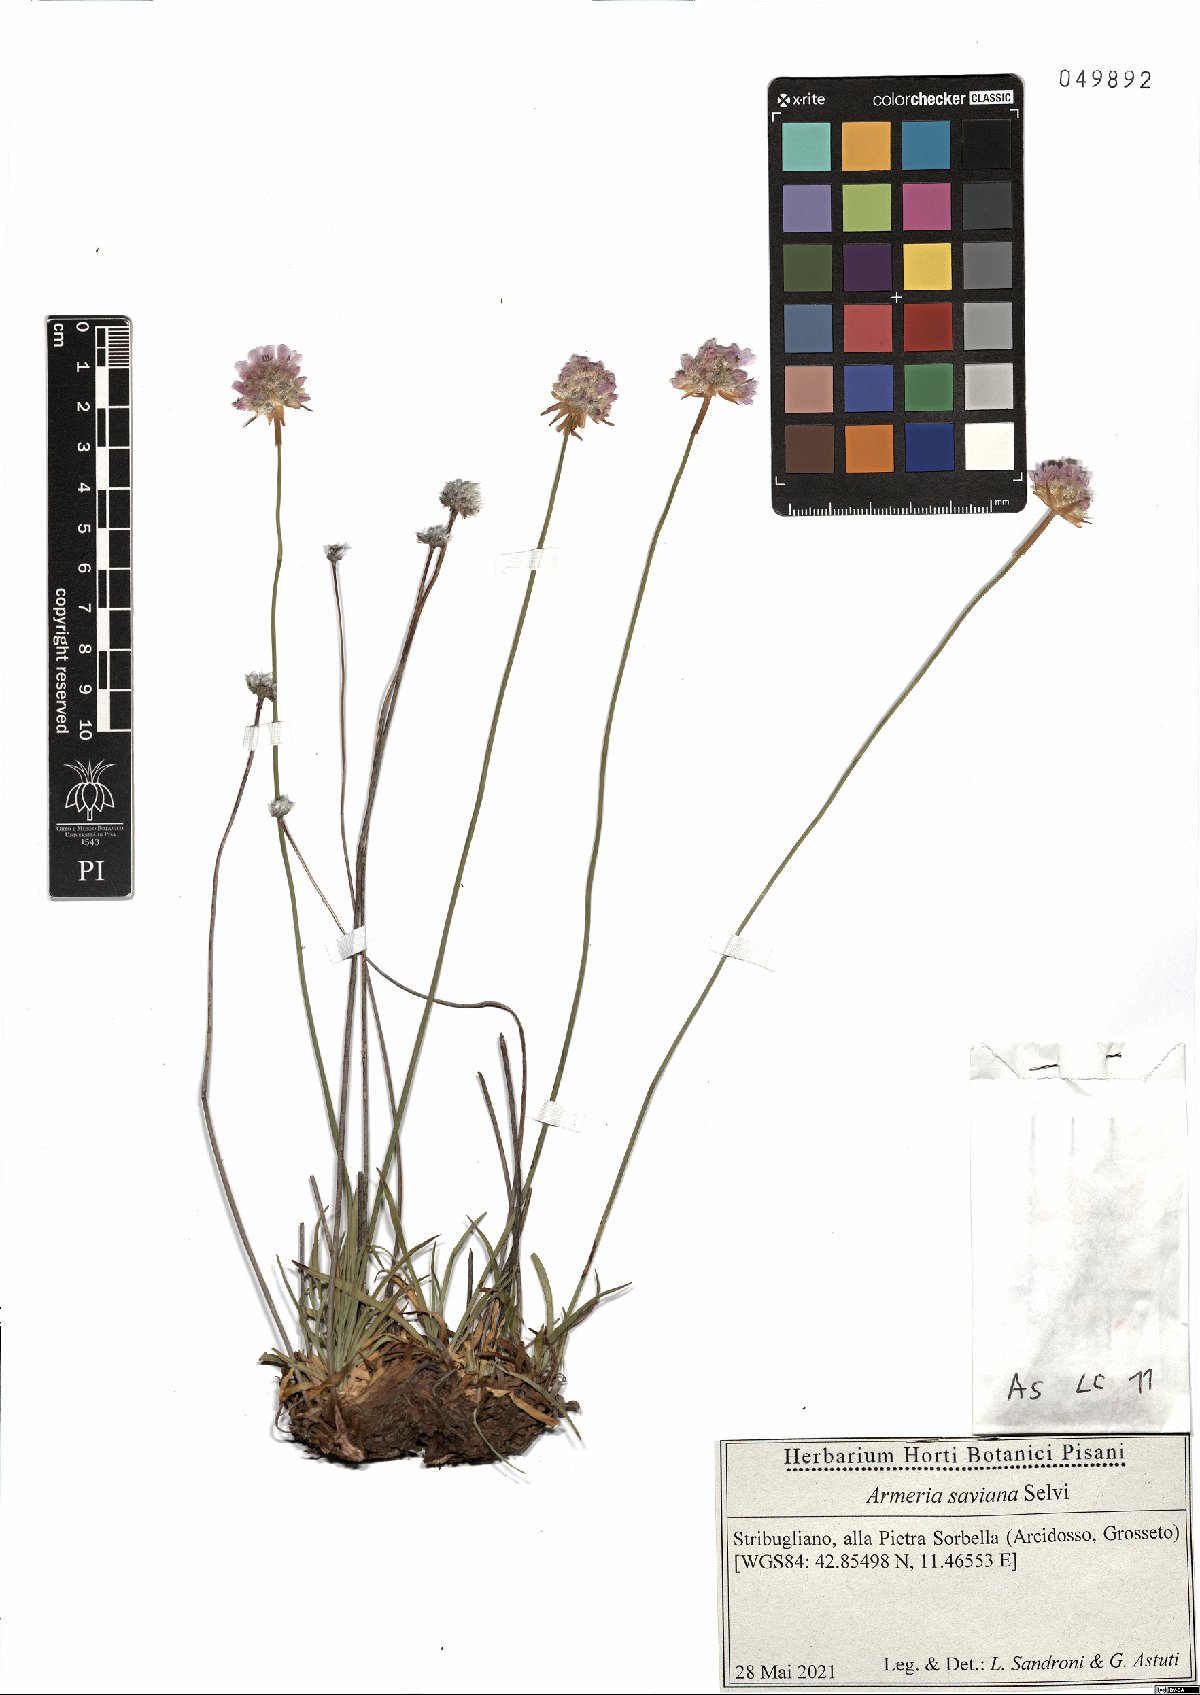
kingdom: Plantae
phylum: Tracheophyta
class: Magnoliopsida
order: Caryophyllales
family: Plumbaginaceae
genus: Armeria
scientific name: Armeria saviana
